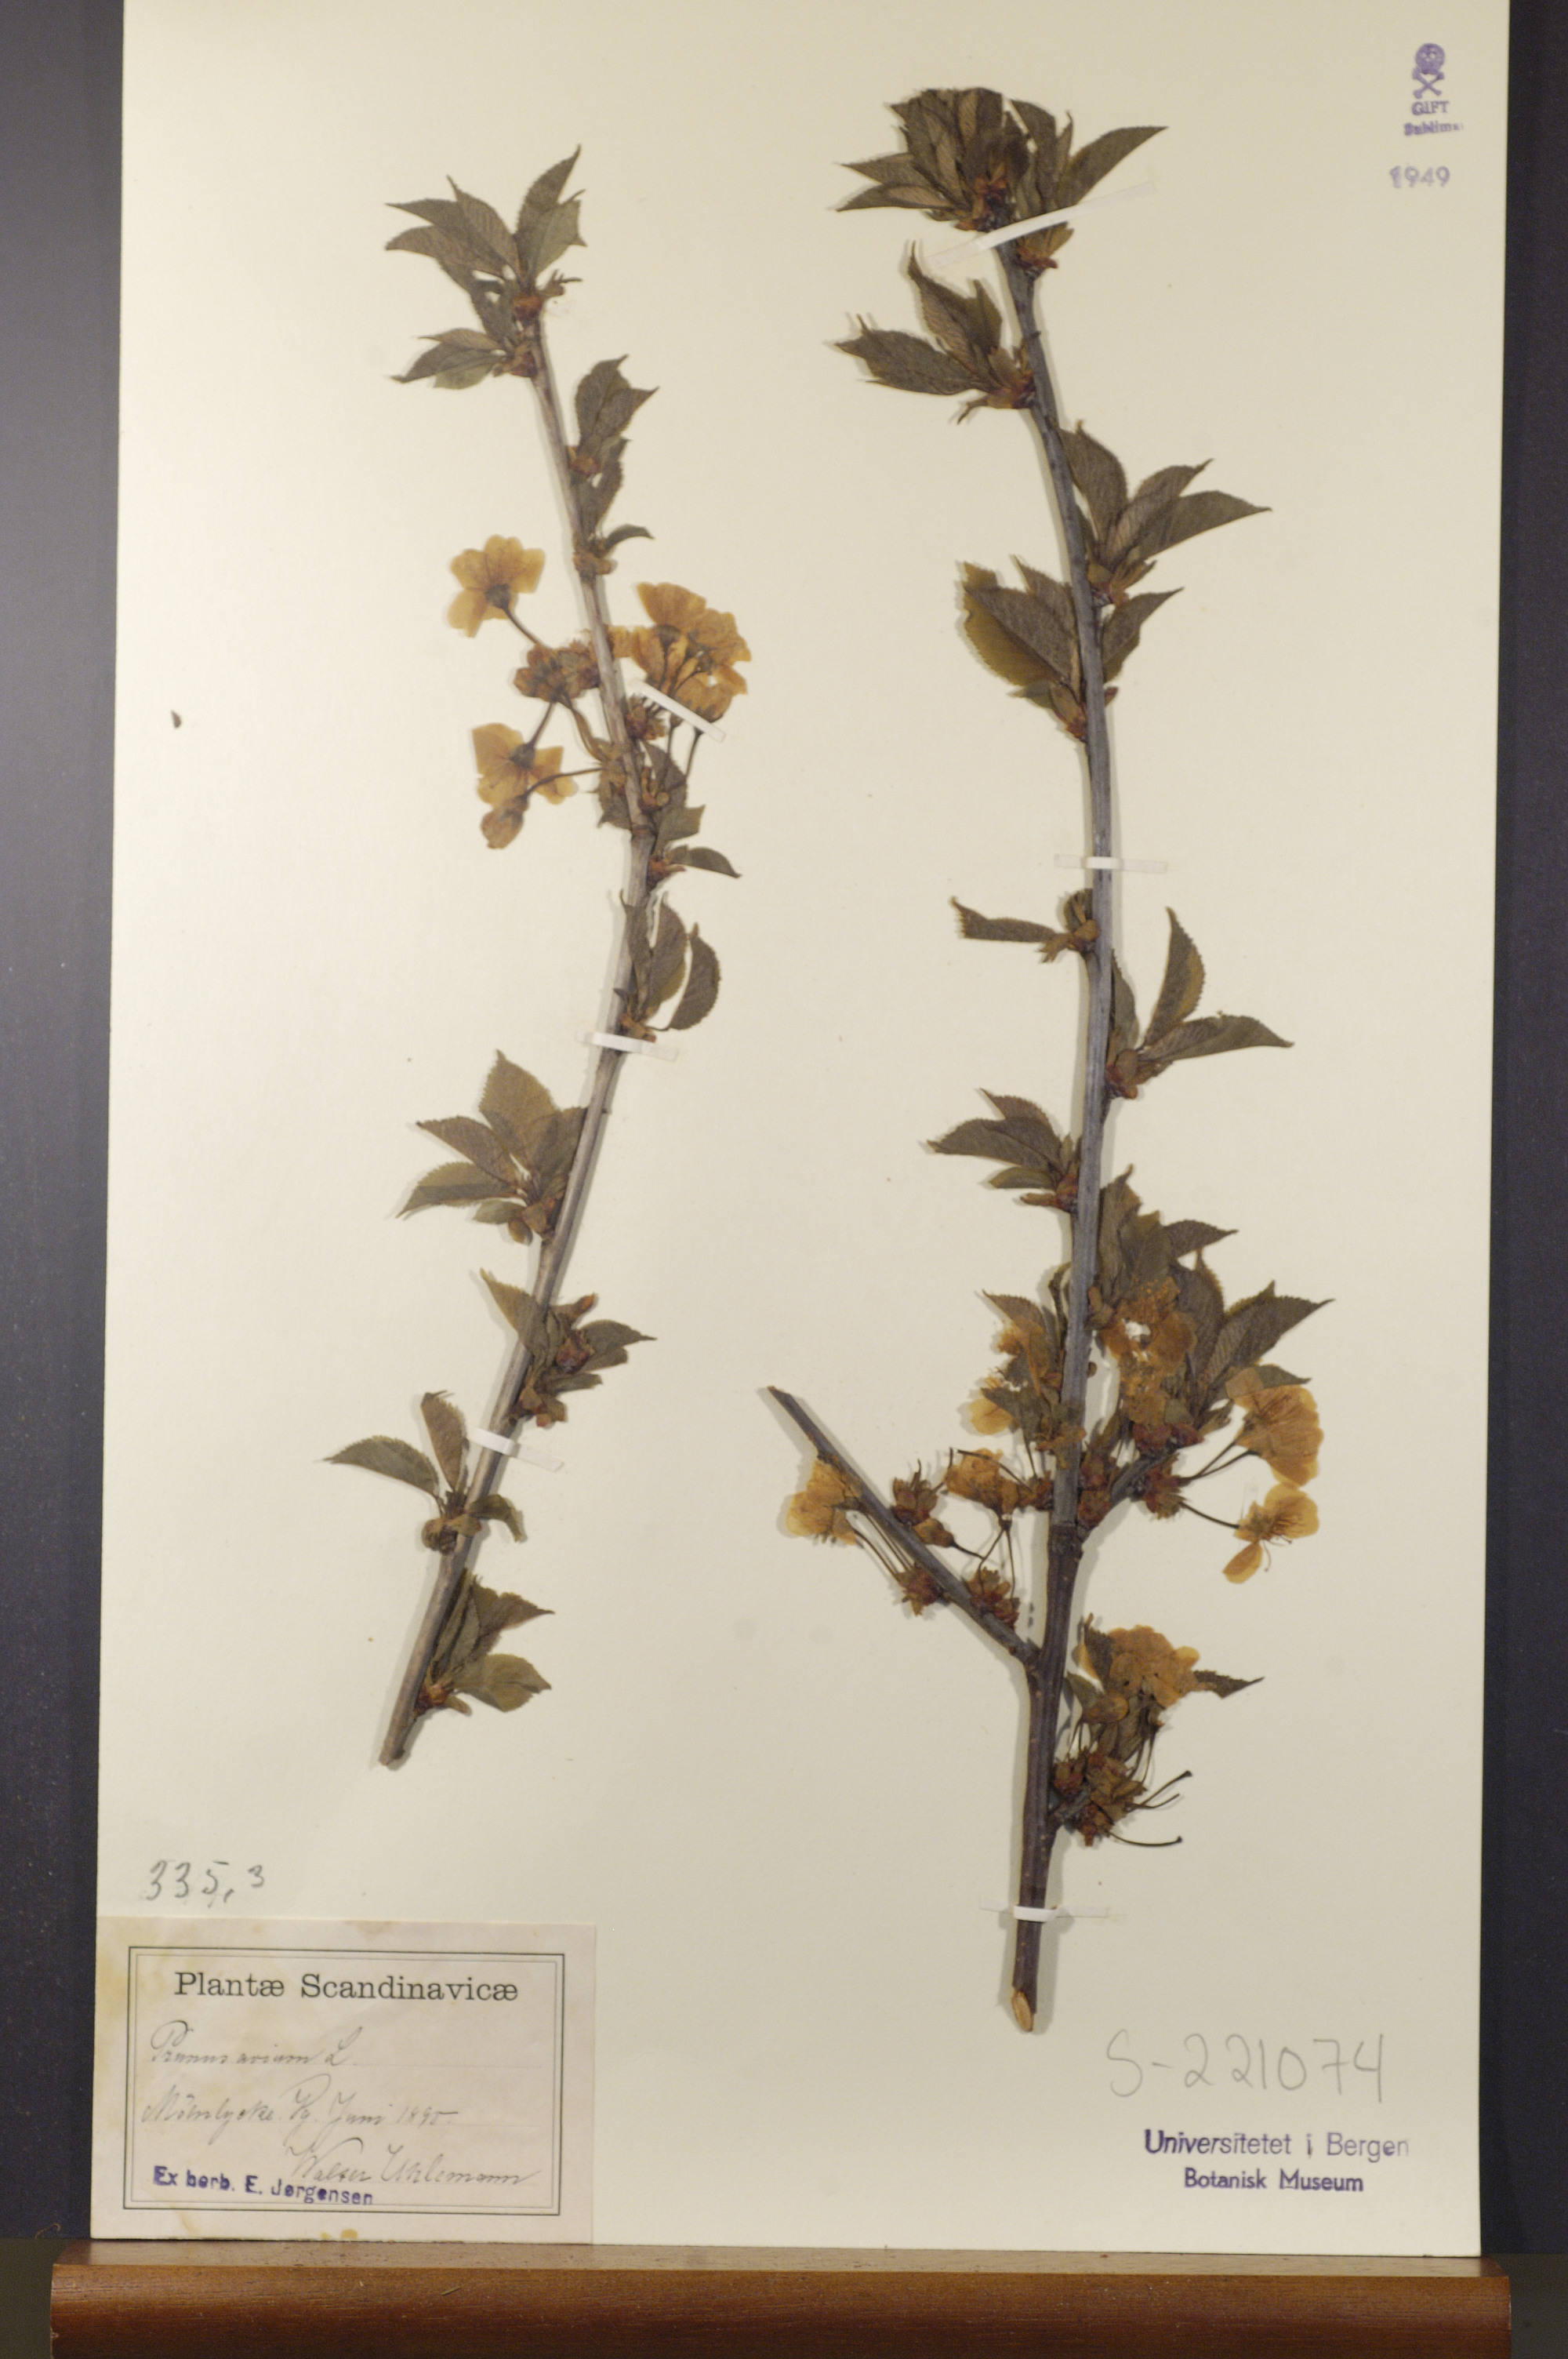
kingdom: Plantae
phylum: Tracheophyta
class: Magnoliopsida
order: Rosales
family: Rosaceae
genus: Prunus
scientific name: Prunus avium
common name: Sweet cherry
